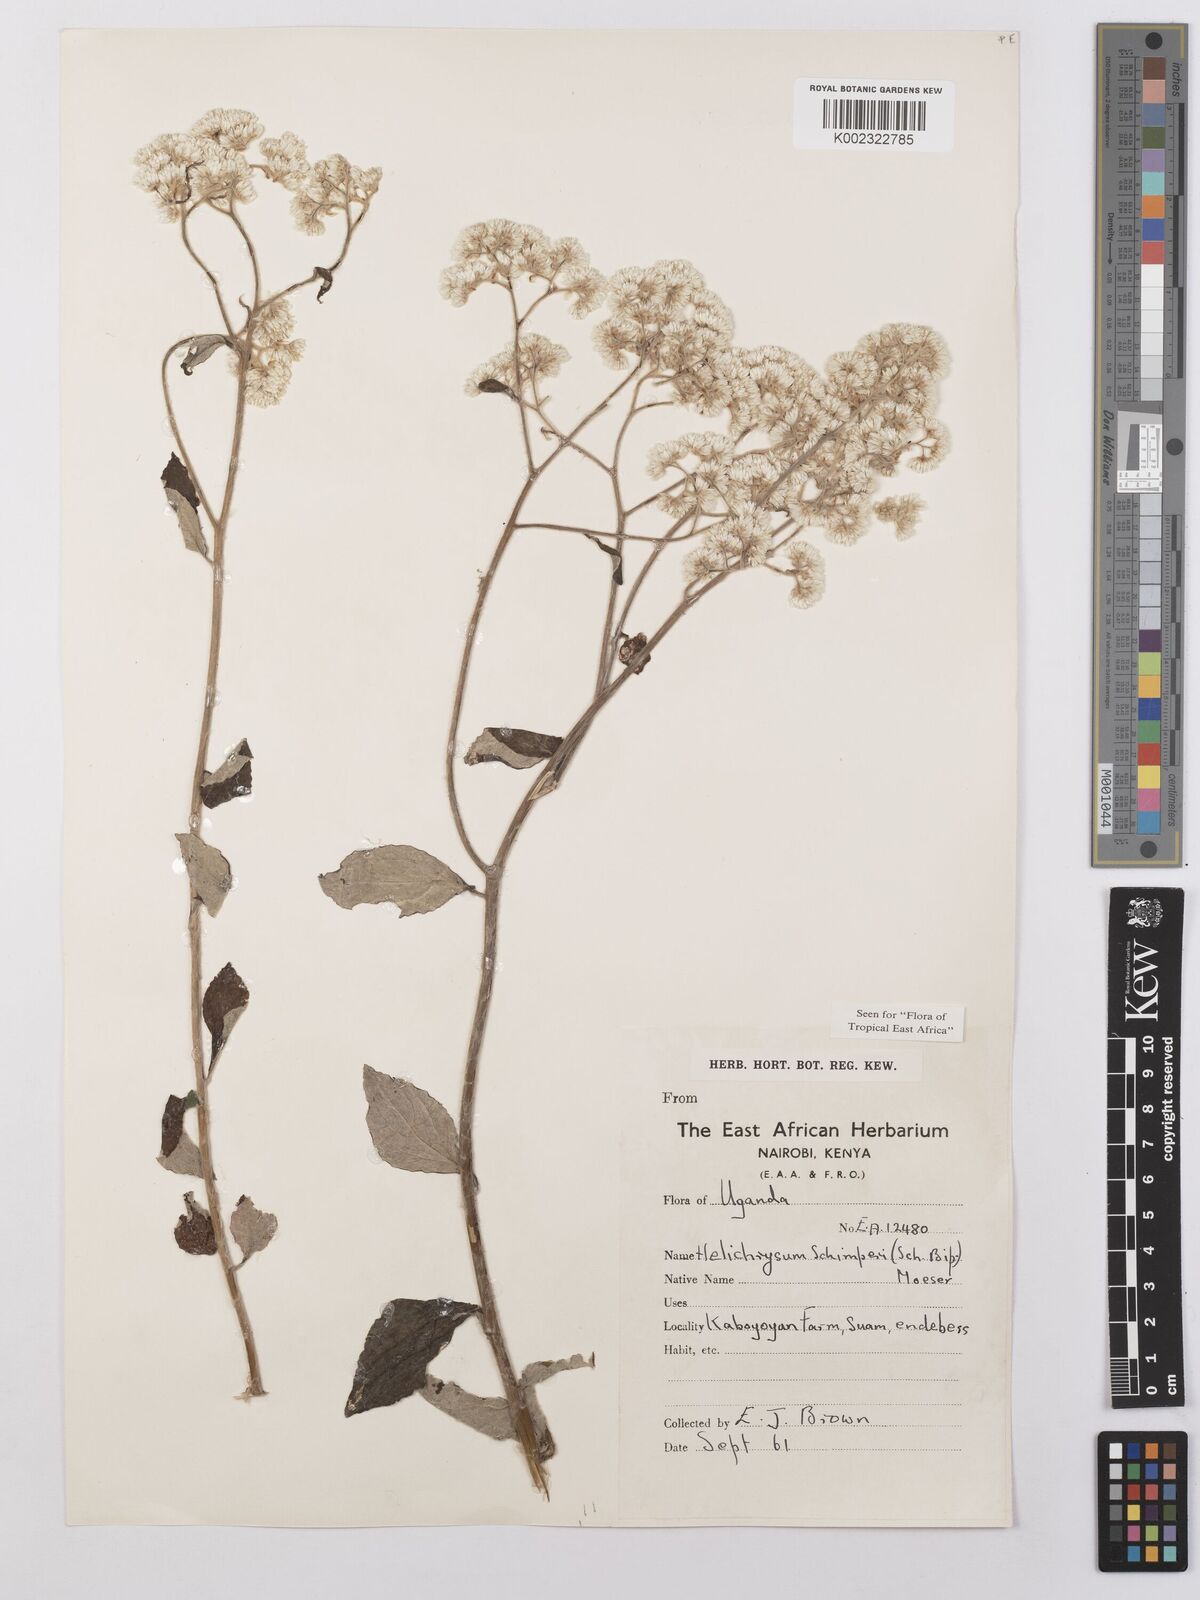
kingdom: Plantae
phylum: Tracheophyta
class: Magnoliopsida
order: Asterales
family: Asteraceae
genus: Helichrysum
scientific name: Helichrysum schimperi
